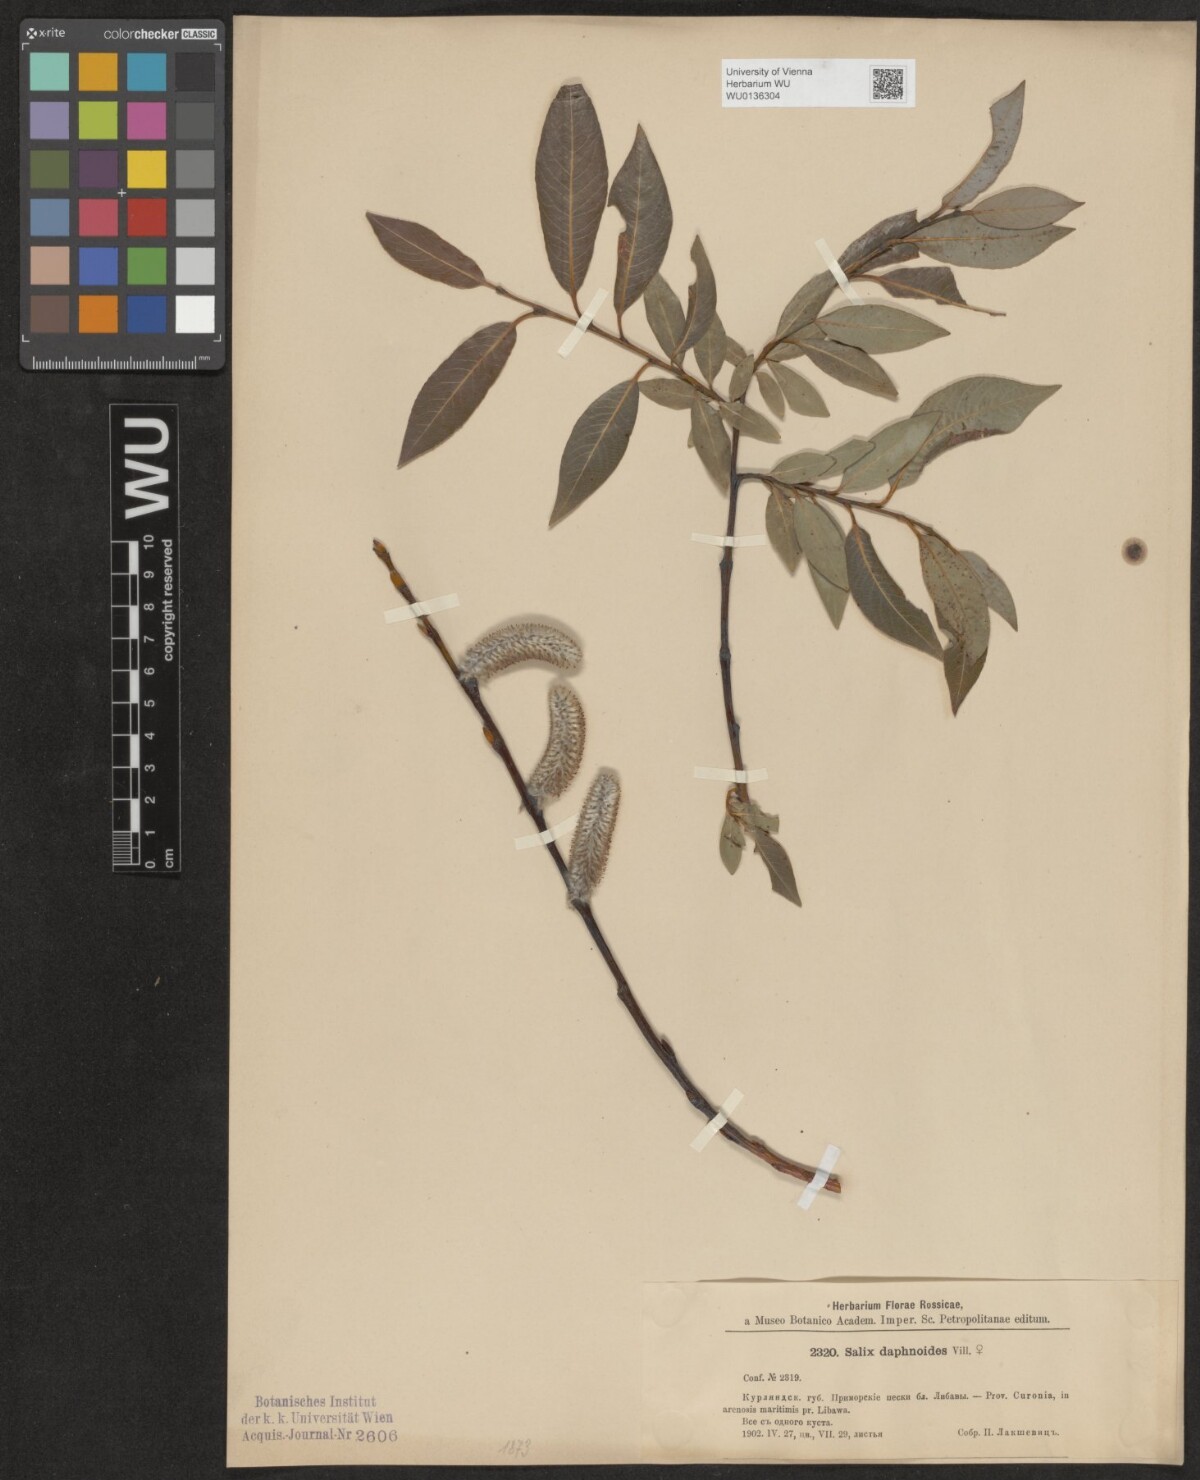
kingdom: Plantae
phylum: Tracheophyta
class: Magnoliopsida
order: Malpighiales
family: Salicaceae
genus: Salix
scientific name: Salix daphnoides
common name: European violet-willow
